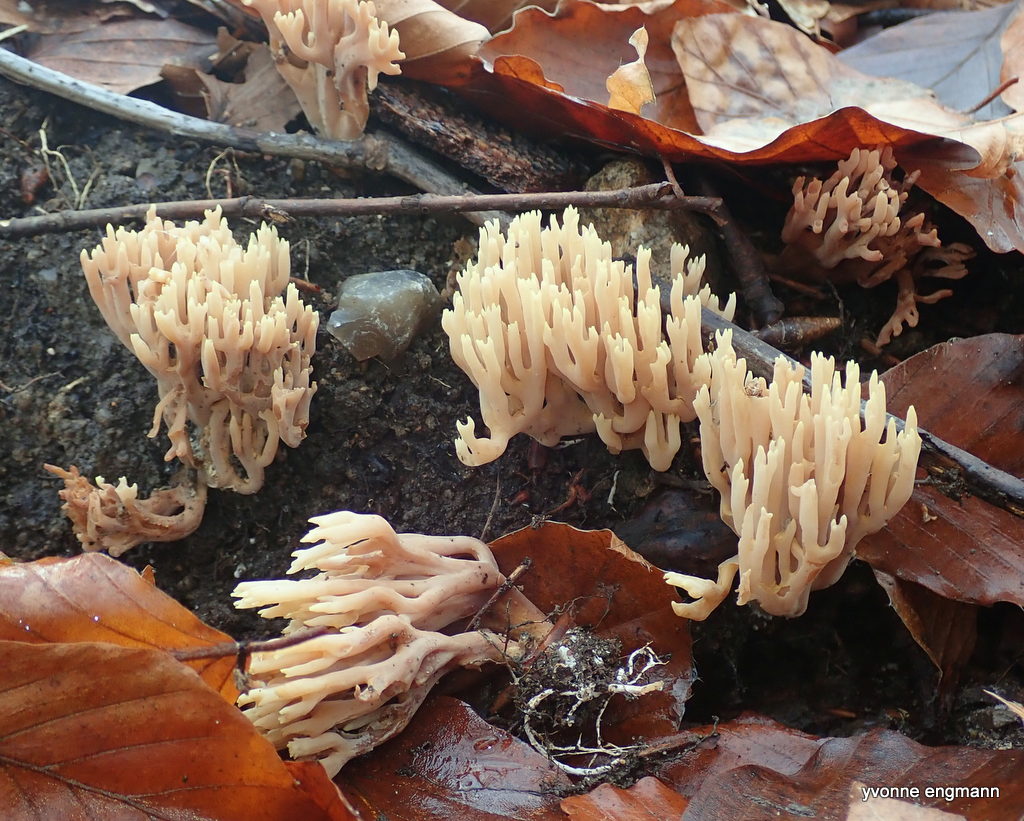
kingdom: Fungi
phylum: Basidiomycota
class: Agaricomycetes
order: Gomphales
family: Gomphaceae
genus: Ramaria
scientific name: Ramaria stricta
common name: rank koralsvamp
